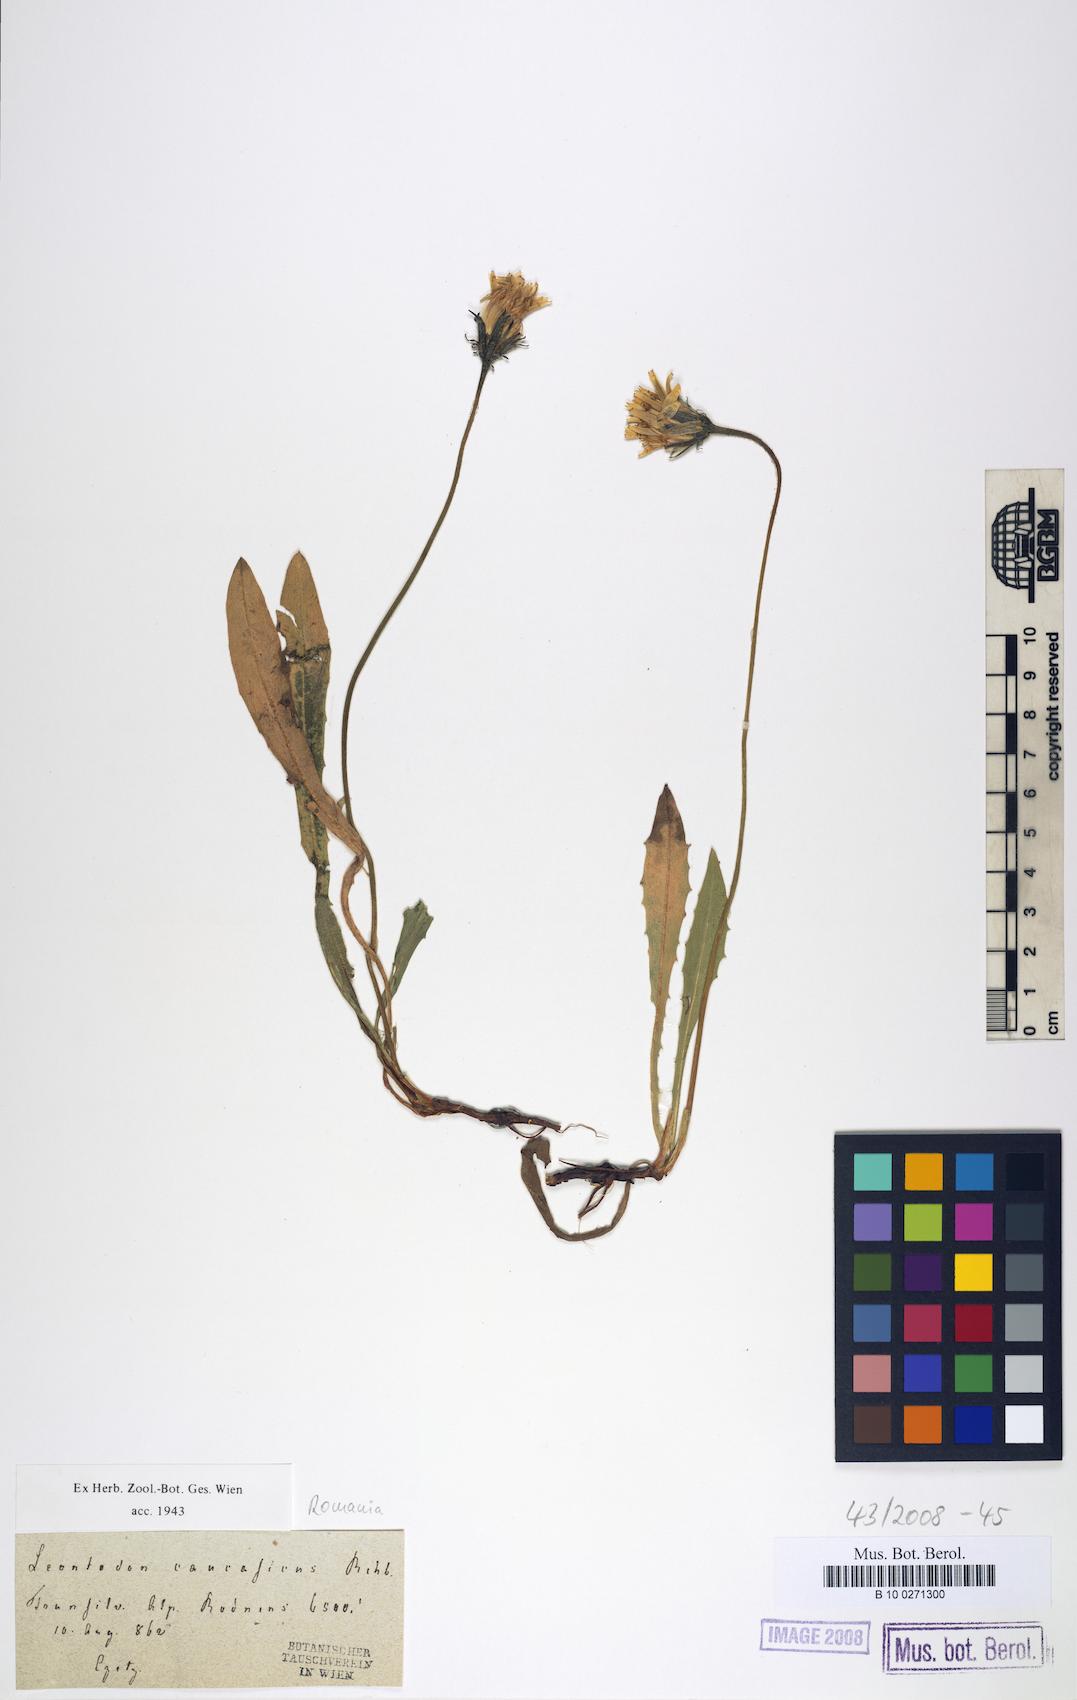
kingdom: Plantae
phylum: Tracheophyta
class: Magnoliopsida
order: Asterales
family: Asteraceae
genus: Leontodon
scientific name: Leontodon caucasicus
